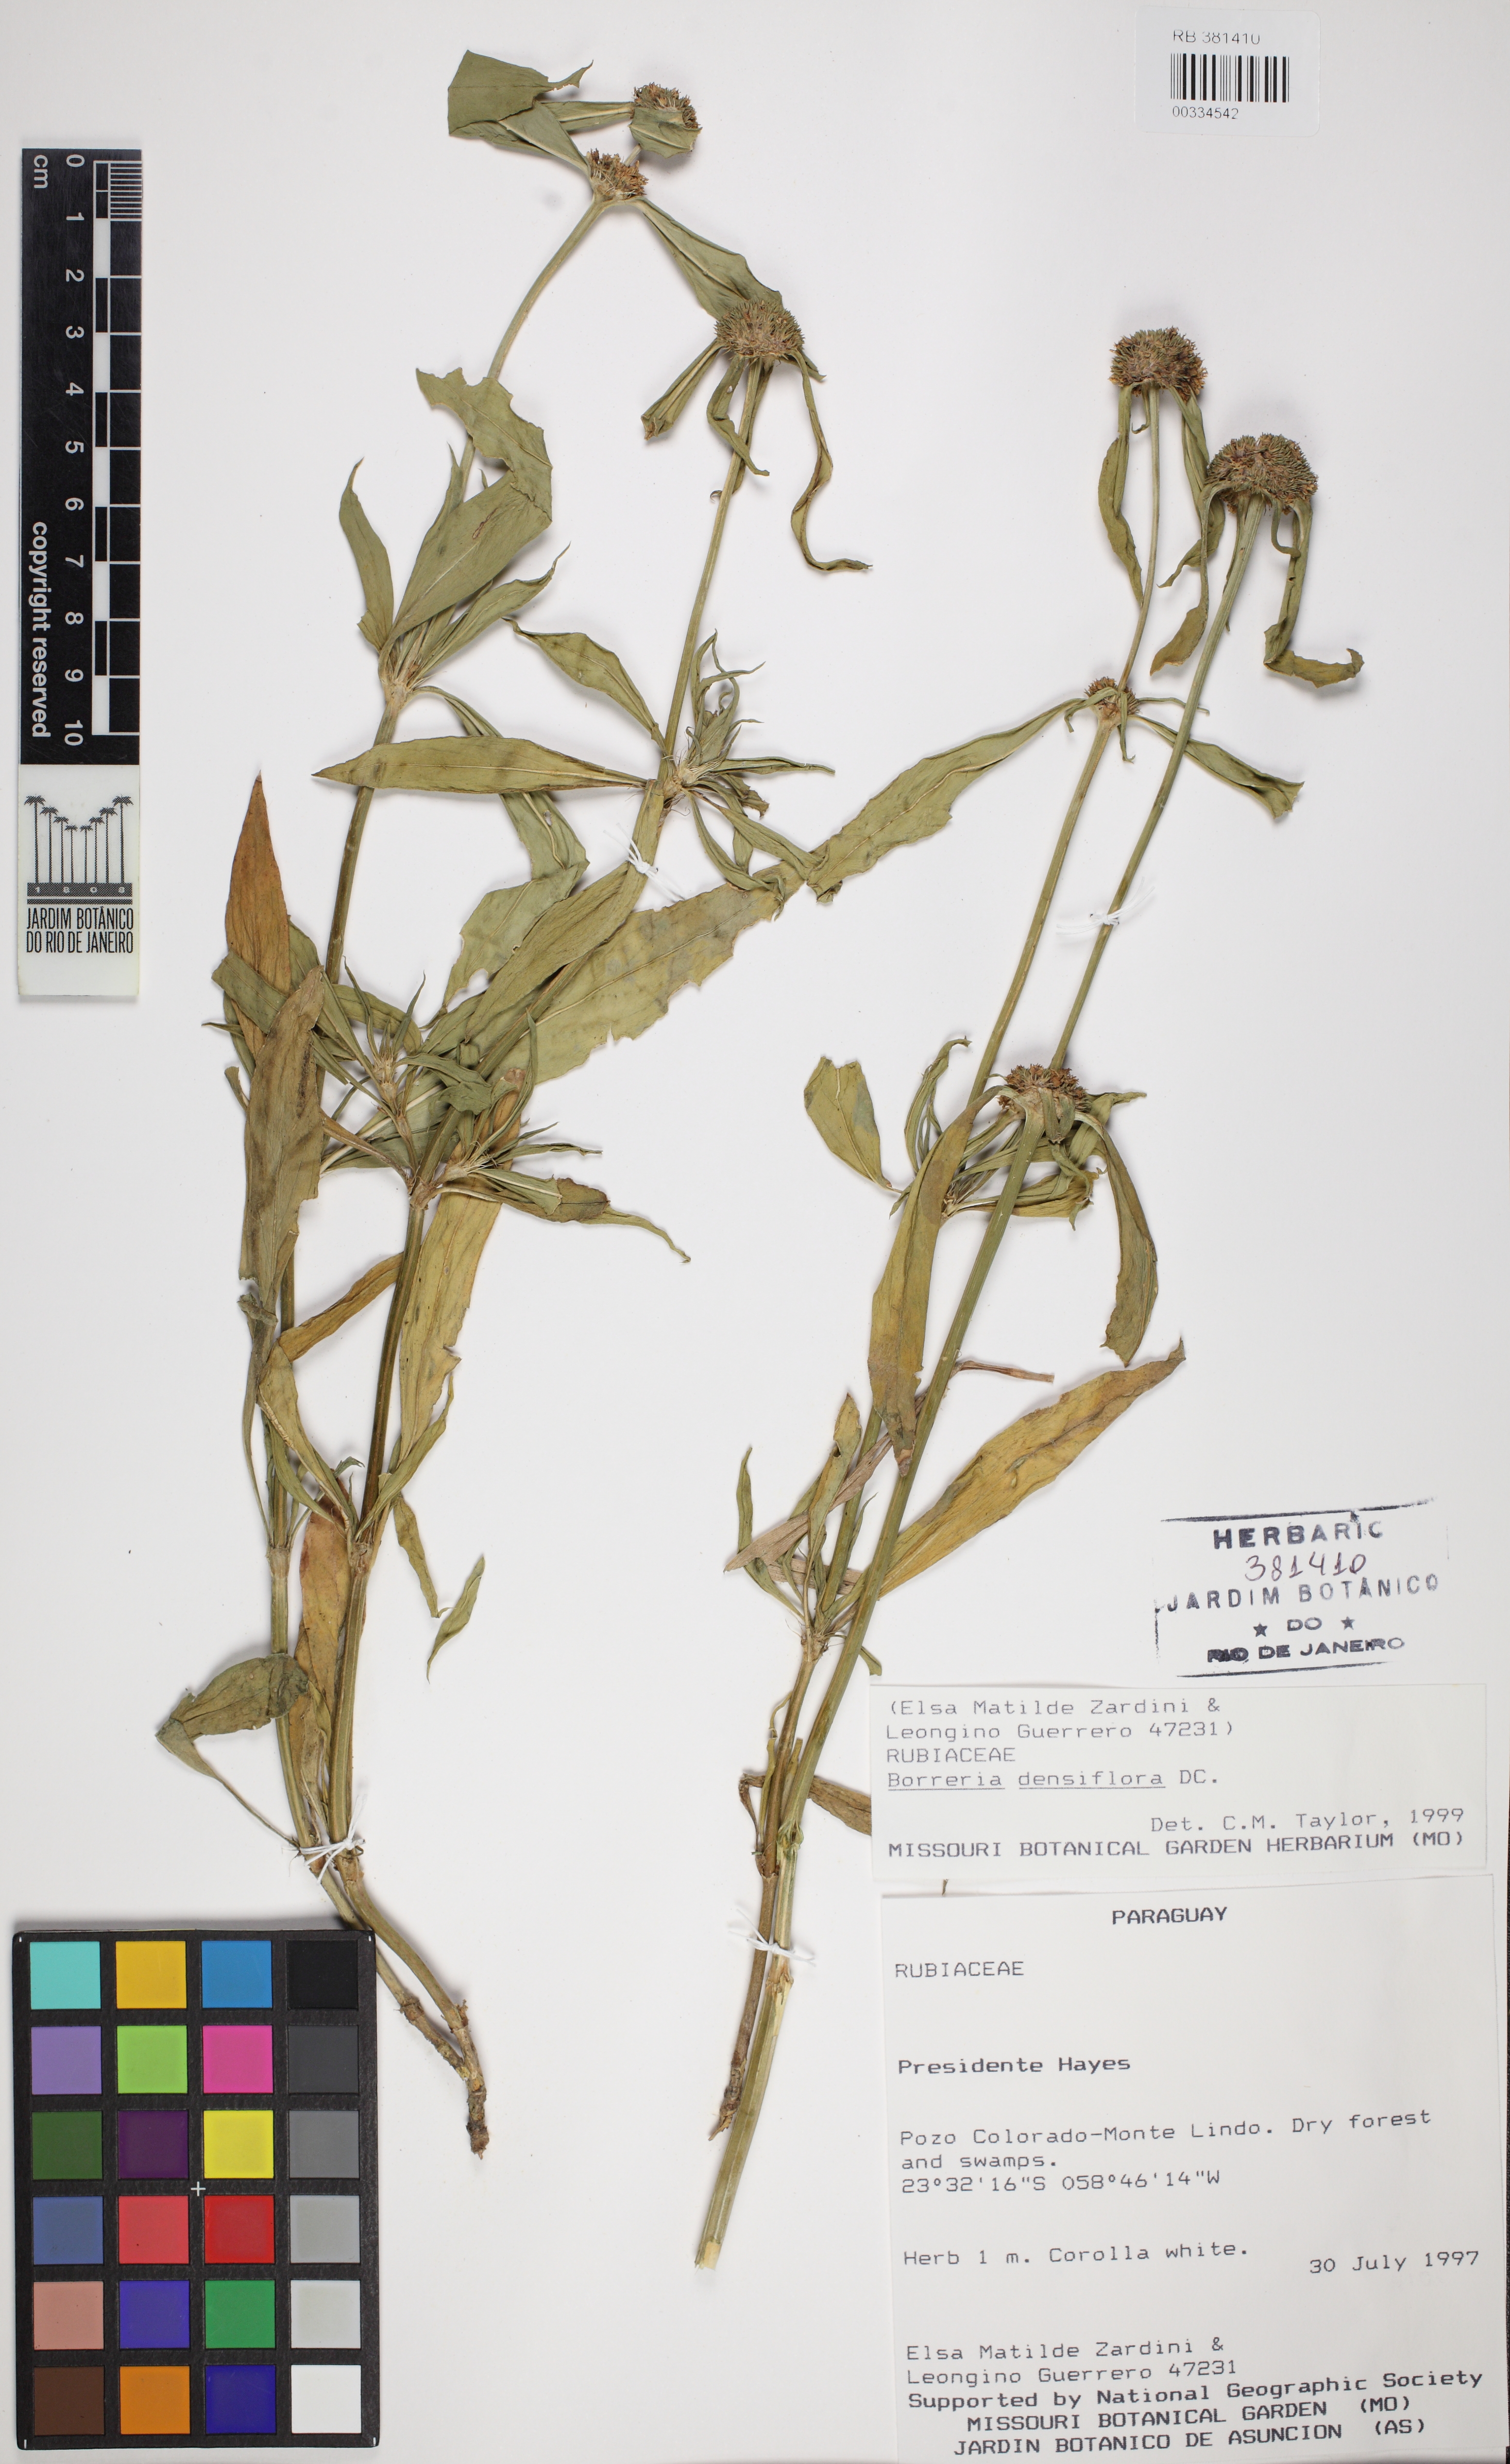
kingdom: Plantae
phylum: Tracheophyta
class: Magnoliopsida
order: Gentianales
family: Rubiaceae
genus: Spermacoce
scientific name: Spermacoce densiflora
